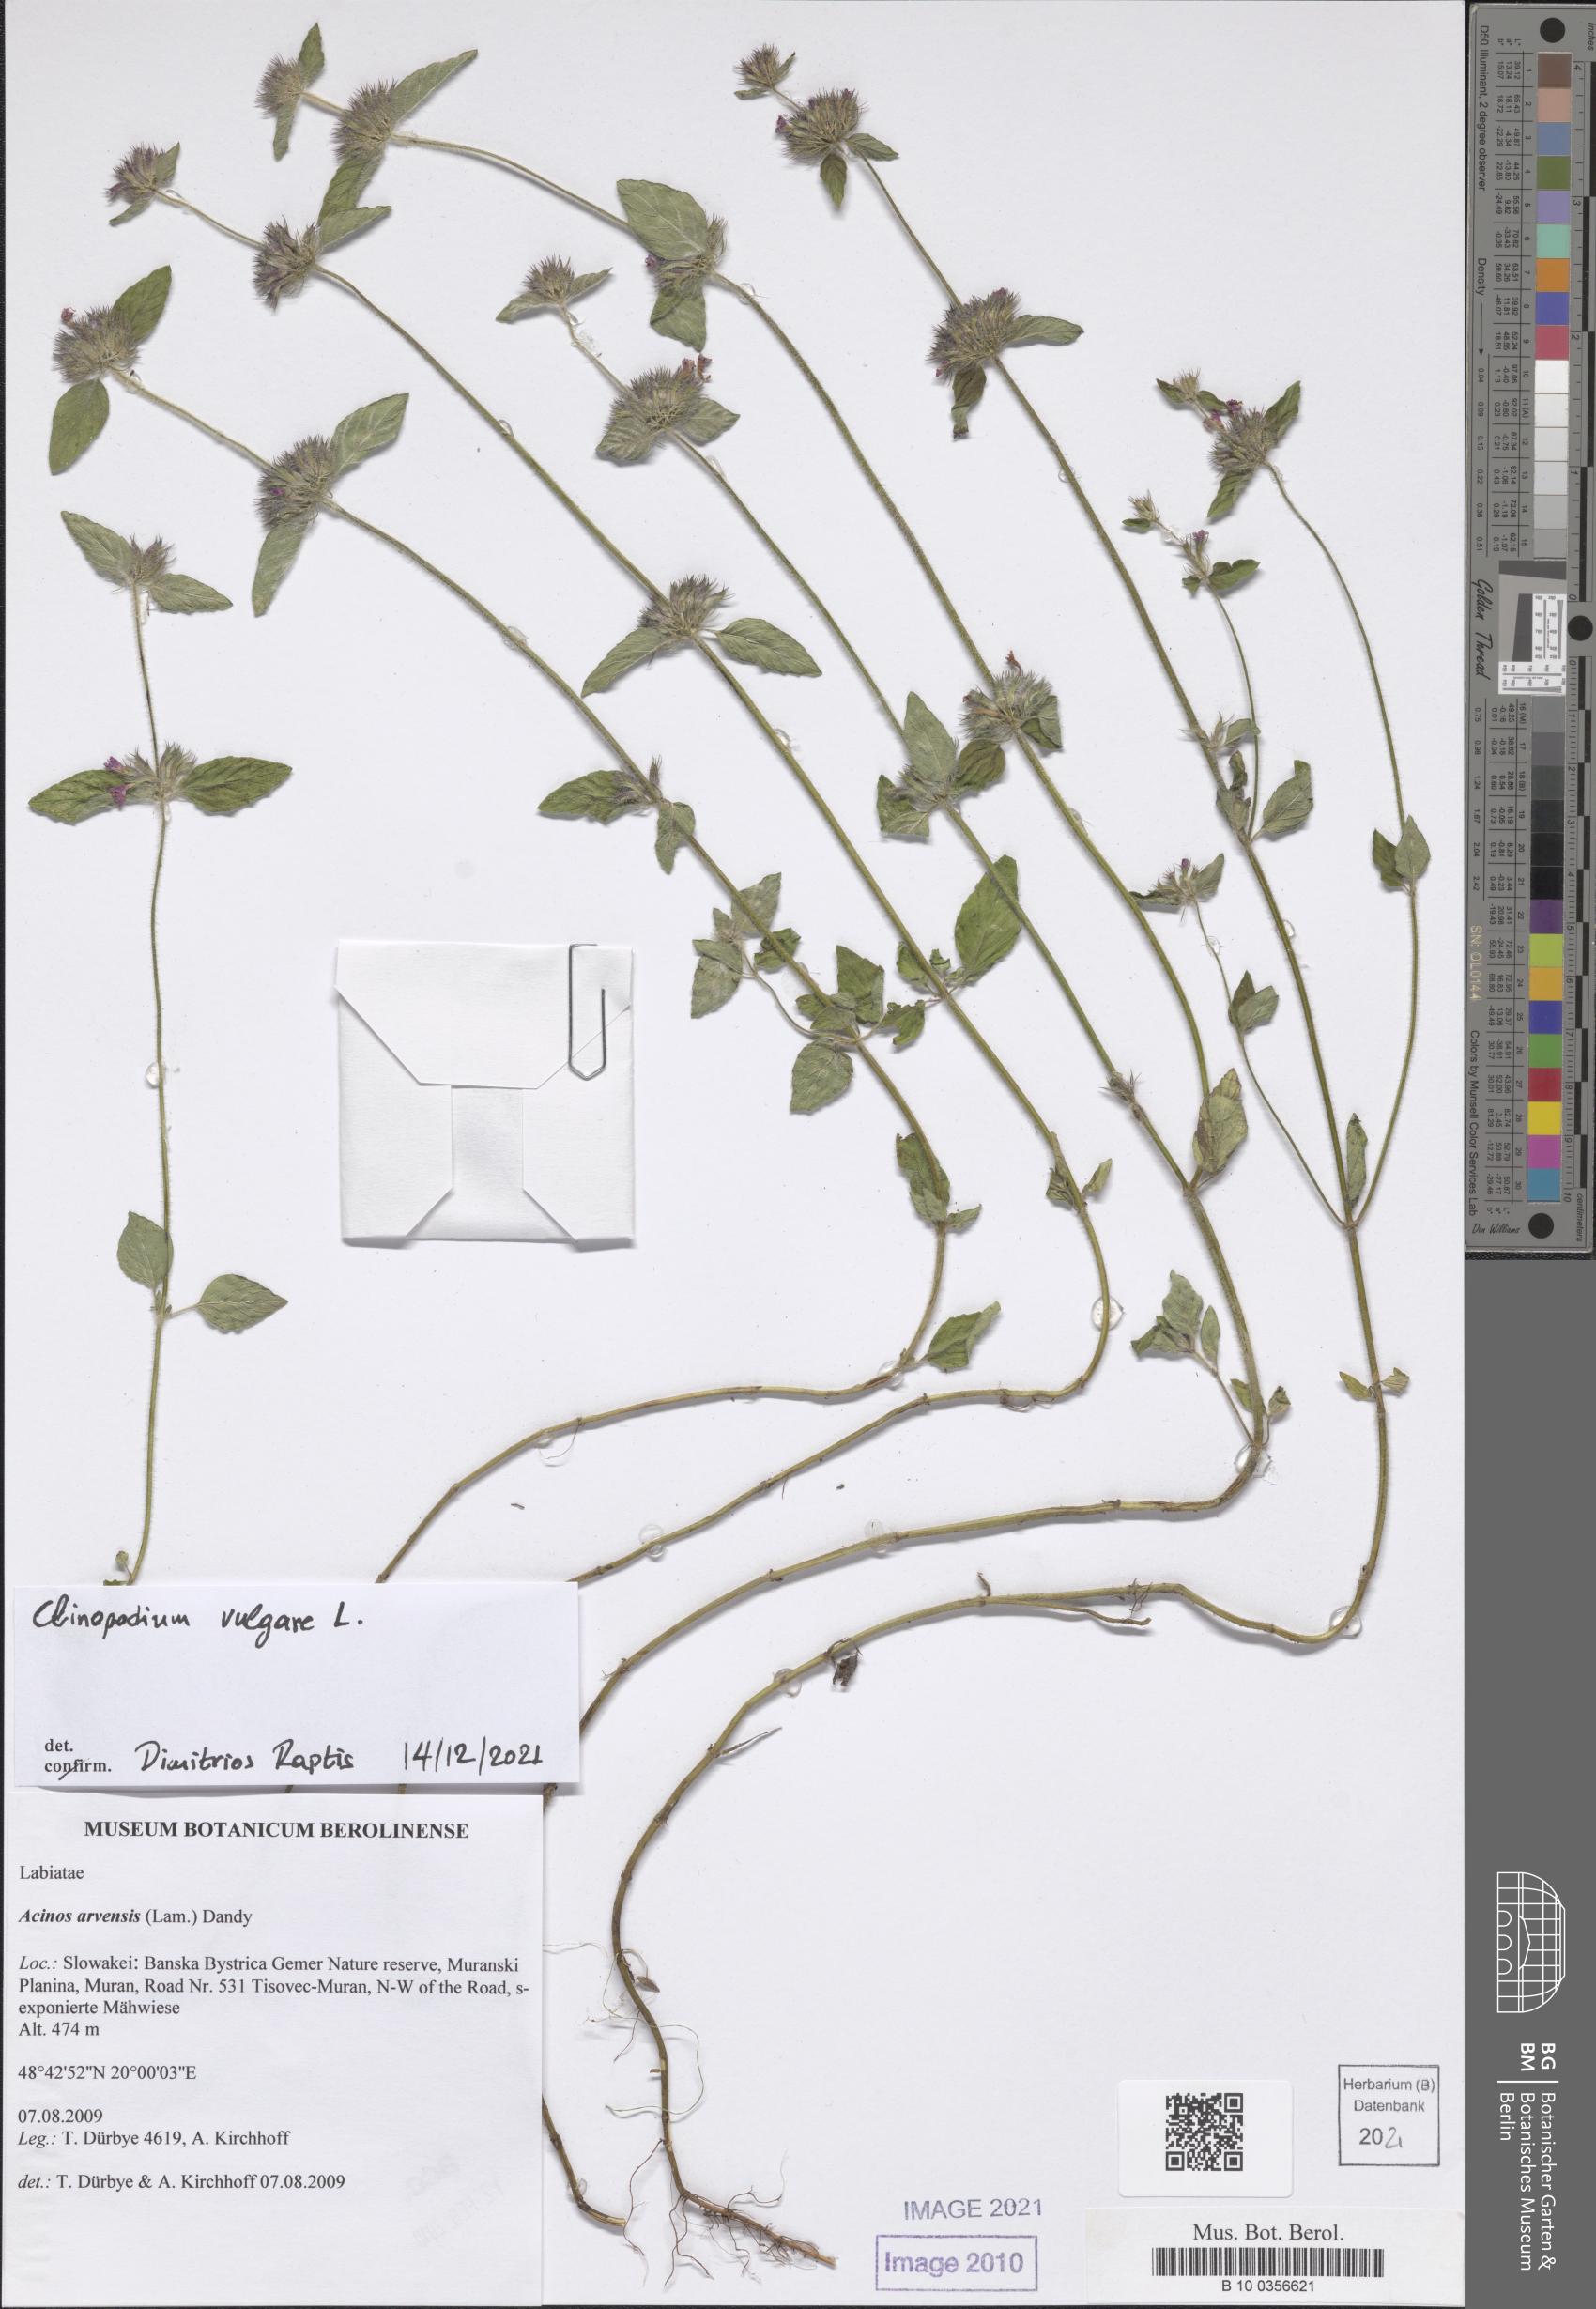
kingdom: Plantae
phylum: Tracheophyta
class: Magnoliopsida
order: Lamiales
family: Lamiaceae
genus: Clinopodium
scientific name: Clinopodium vulgare
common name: Wild basil
